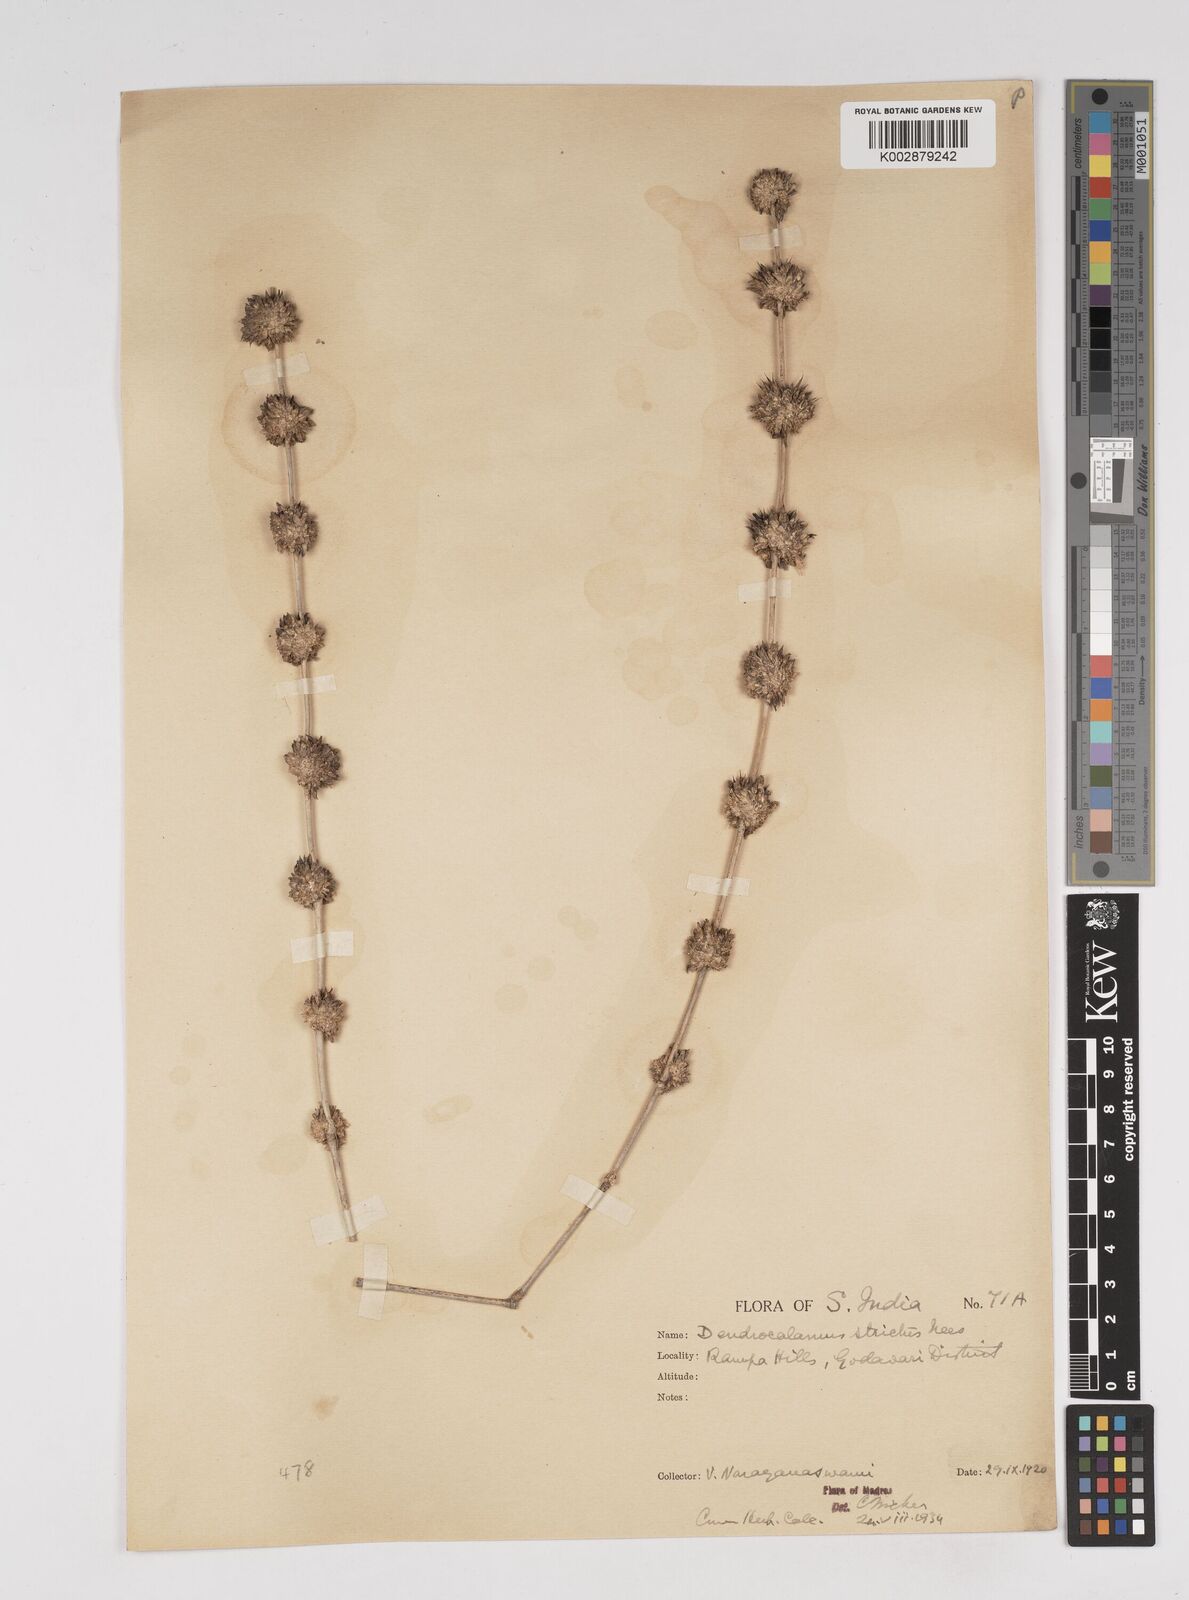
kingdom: Plantae
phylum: Tracheophyta
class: Liliopsida
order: Poales
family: Poaceae
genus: Dendrocalamus
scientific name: Dendrocalamus strictus
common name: Male bamboo
